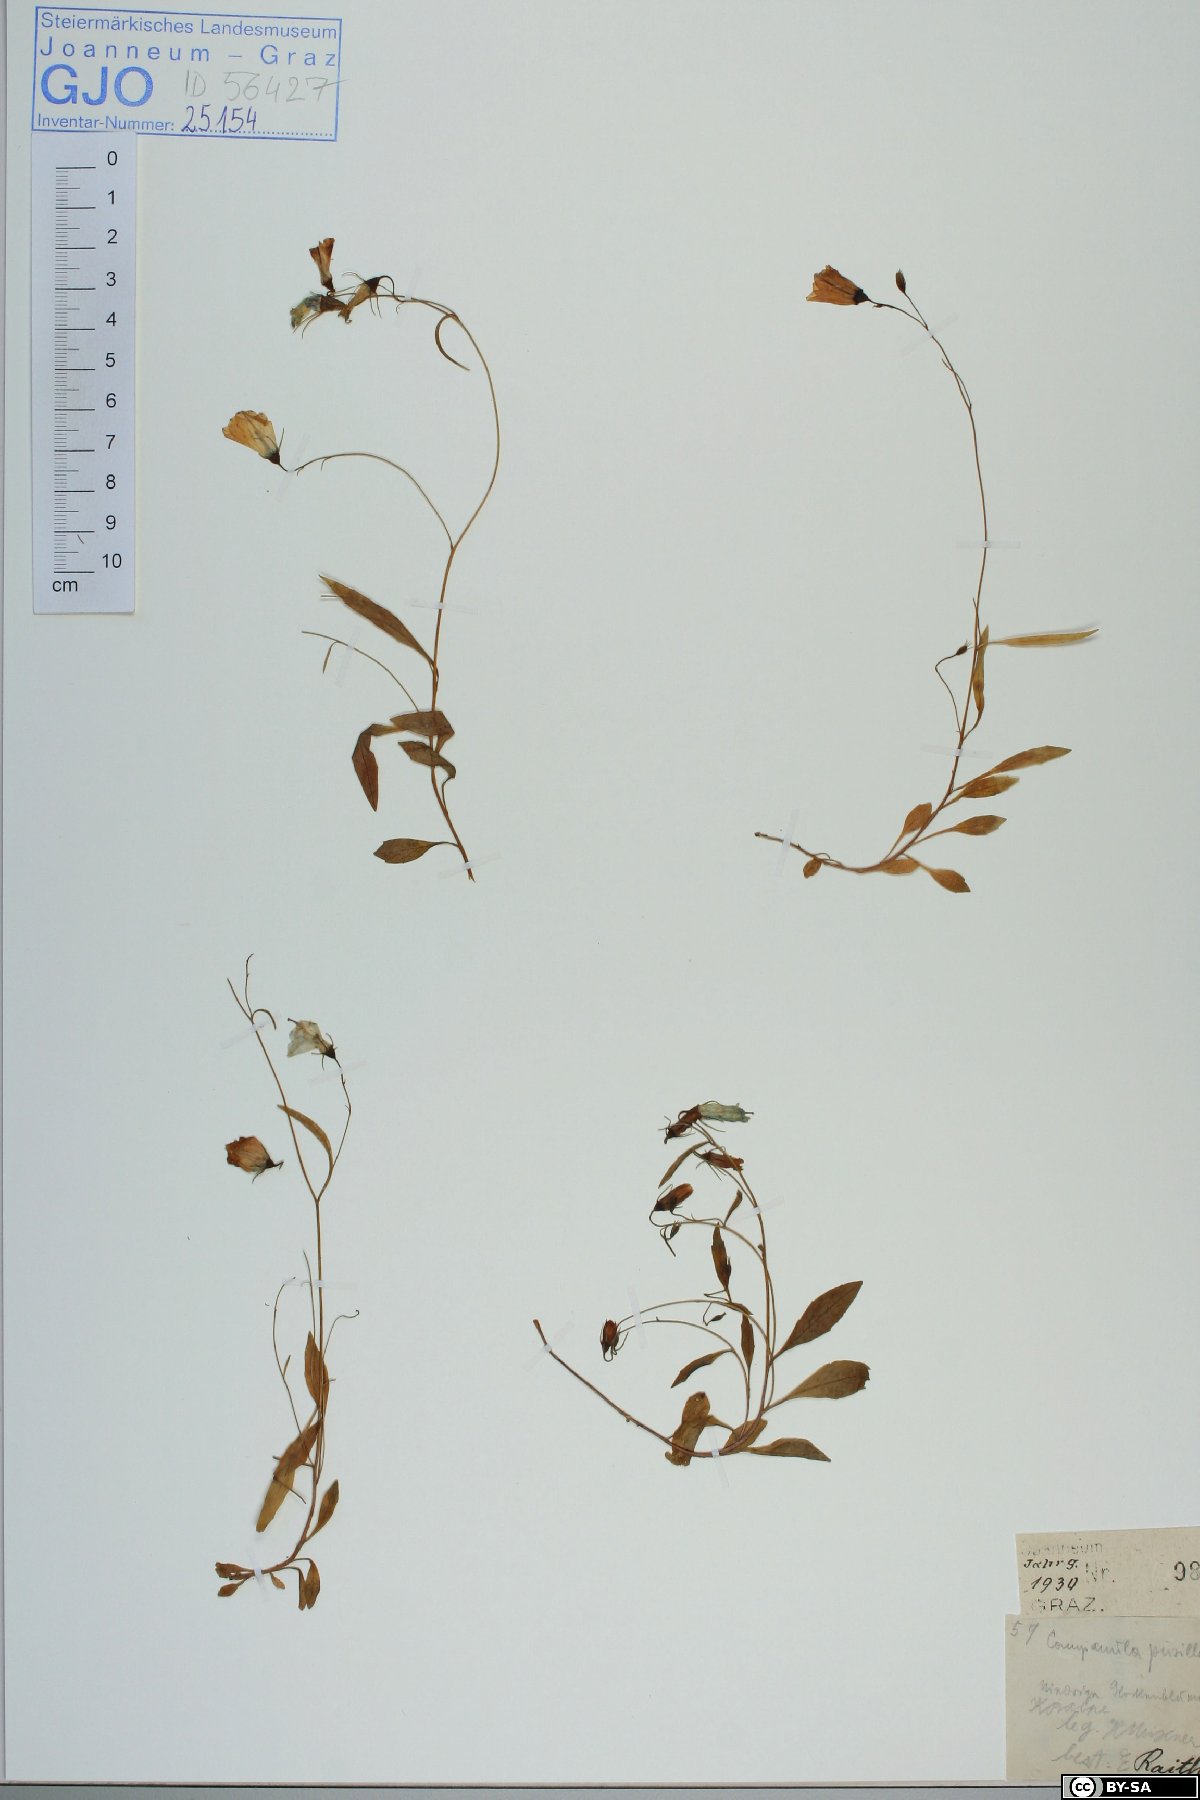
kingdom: Plantae
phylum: Tracheophyta
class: Magnoliopsida
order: Asterales
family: Campanulaceae
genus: Campanula
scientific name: Campanula cochleariifolia
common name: Fairies'-thimbles
